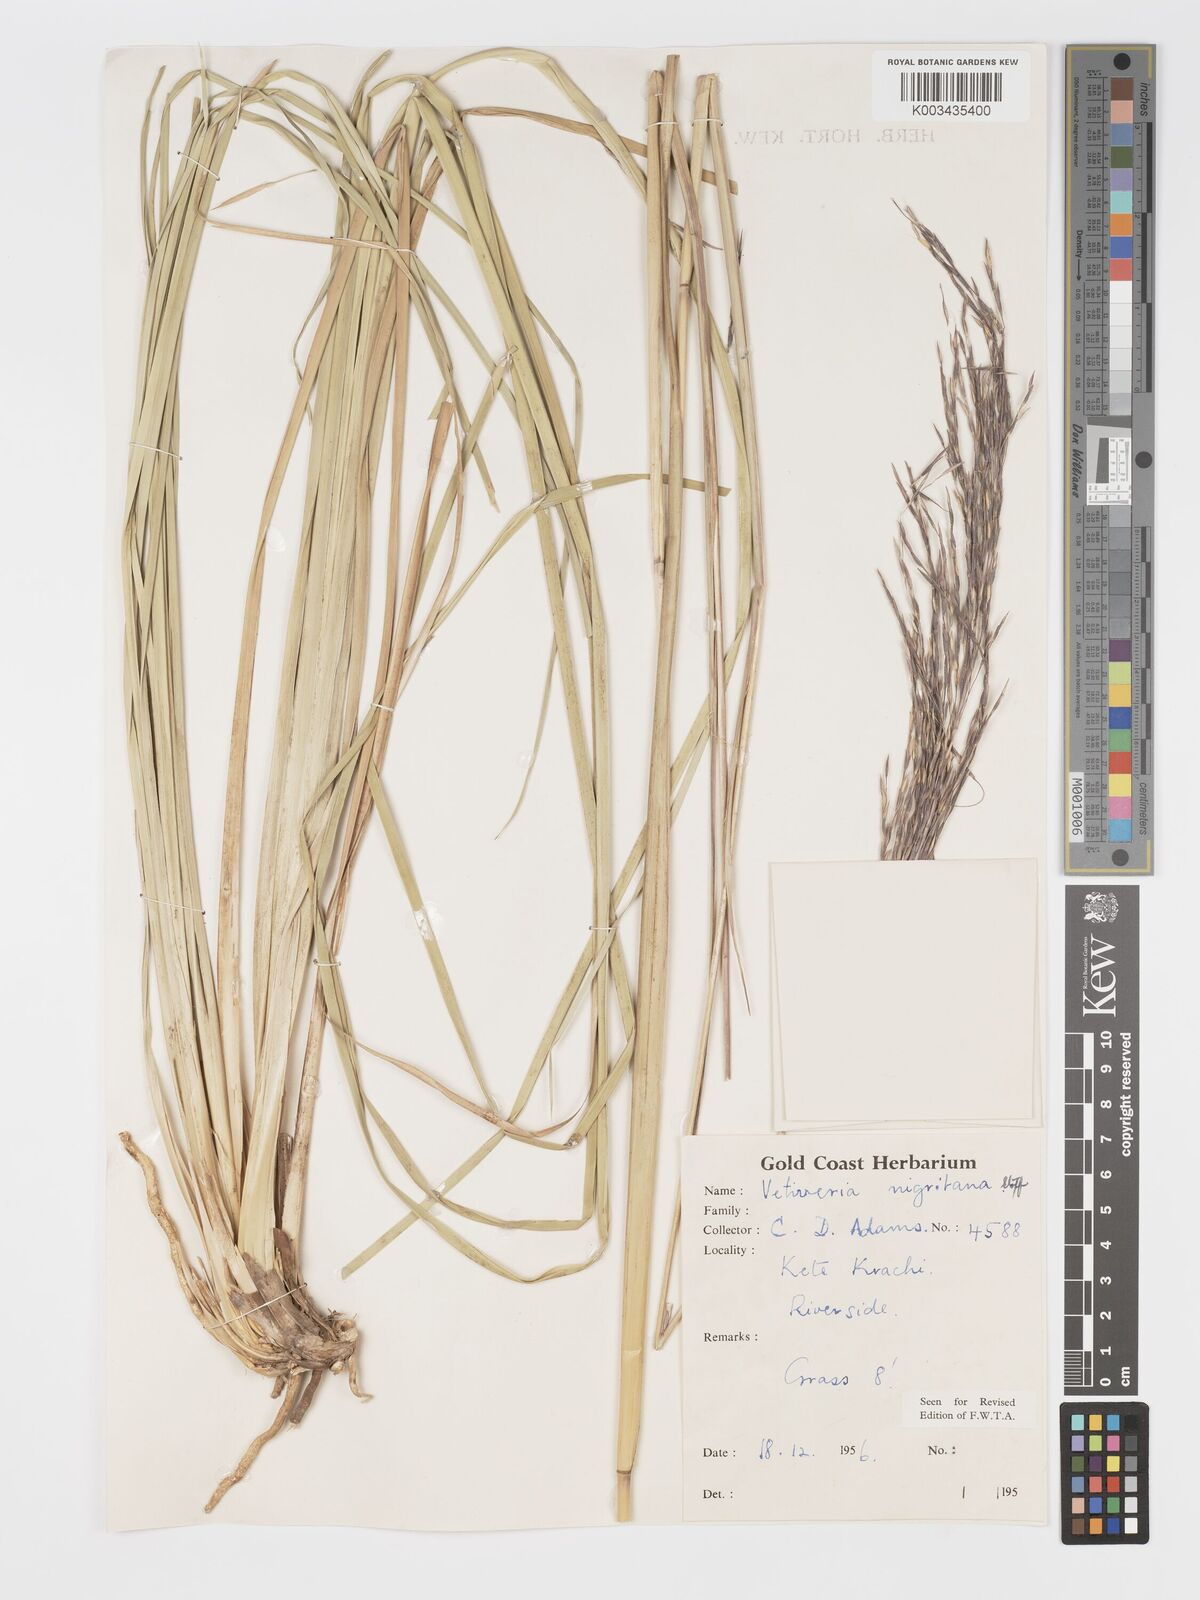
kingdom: Plantae
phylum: Tracheophyta
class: Liliopsida
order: Poales
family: Poaceae
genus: Chrysopogon
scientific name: Chrysopogon nigritanus
